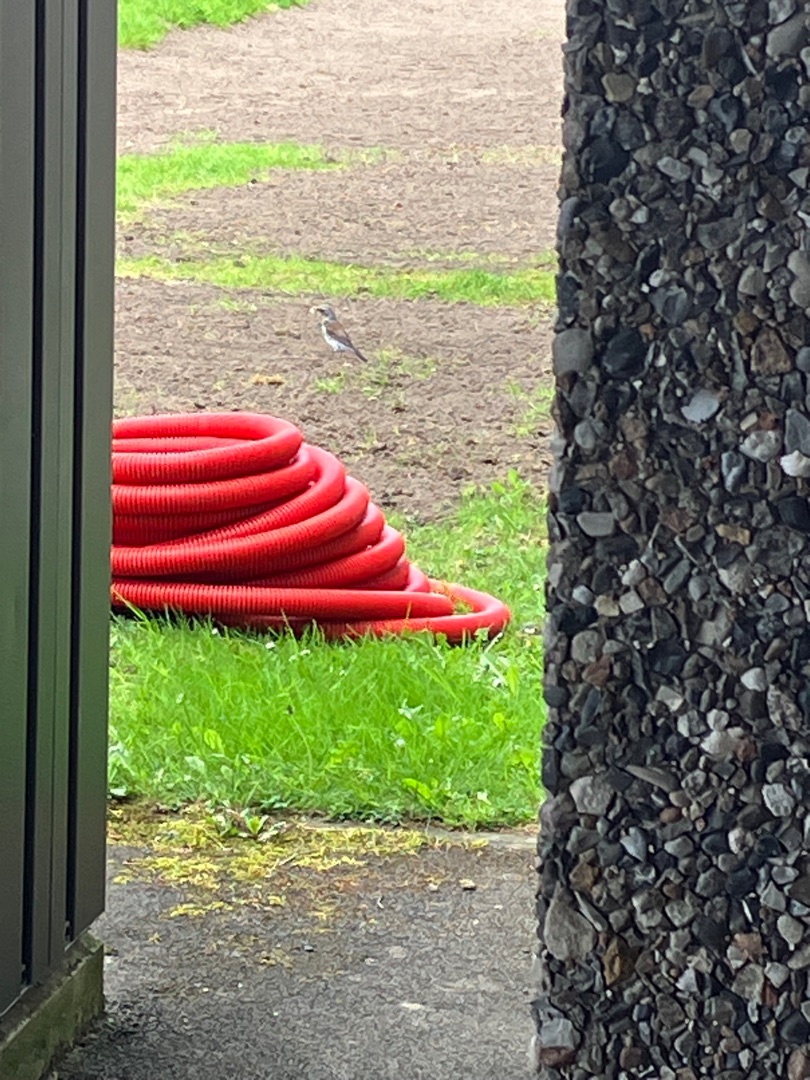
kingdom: Animalia
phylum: Chordata
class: Aves
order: Passeriformes
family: Turdidae
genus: Turdus
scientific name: Turdus pilaris
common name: Sjagger
